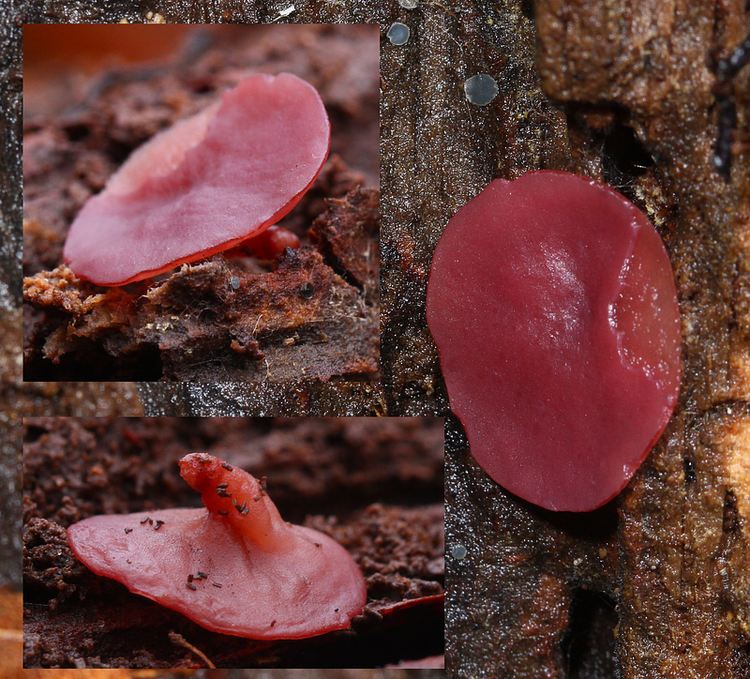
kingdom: Fungi
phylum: Ascomycota
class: Leotiomycetes
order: Helotiales
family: Gelatinodiscaceae
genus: Ascocoryne
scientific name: Ascocoryne cylichnium
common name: stor sejskive
